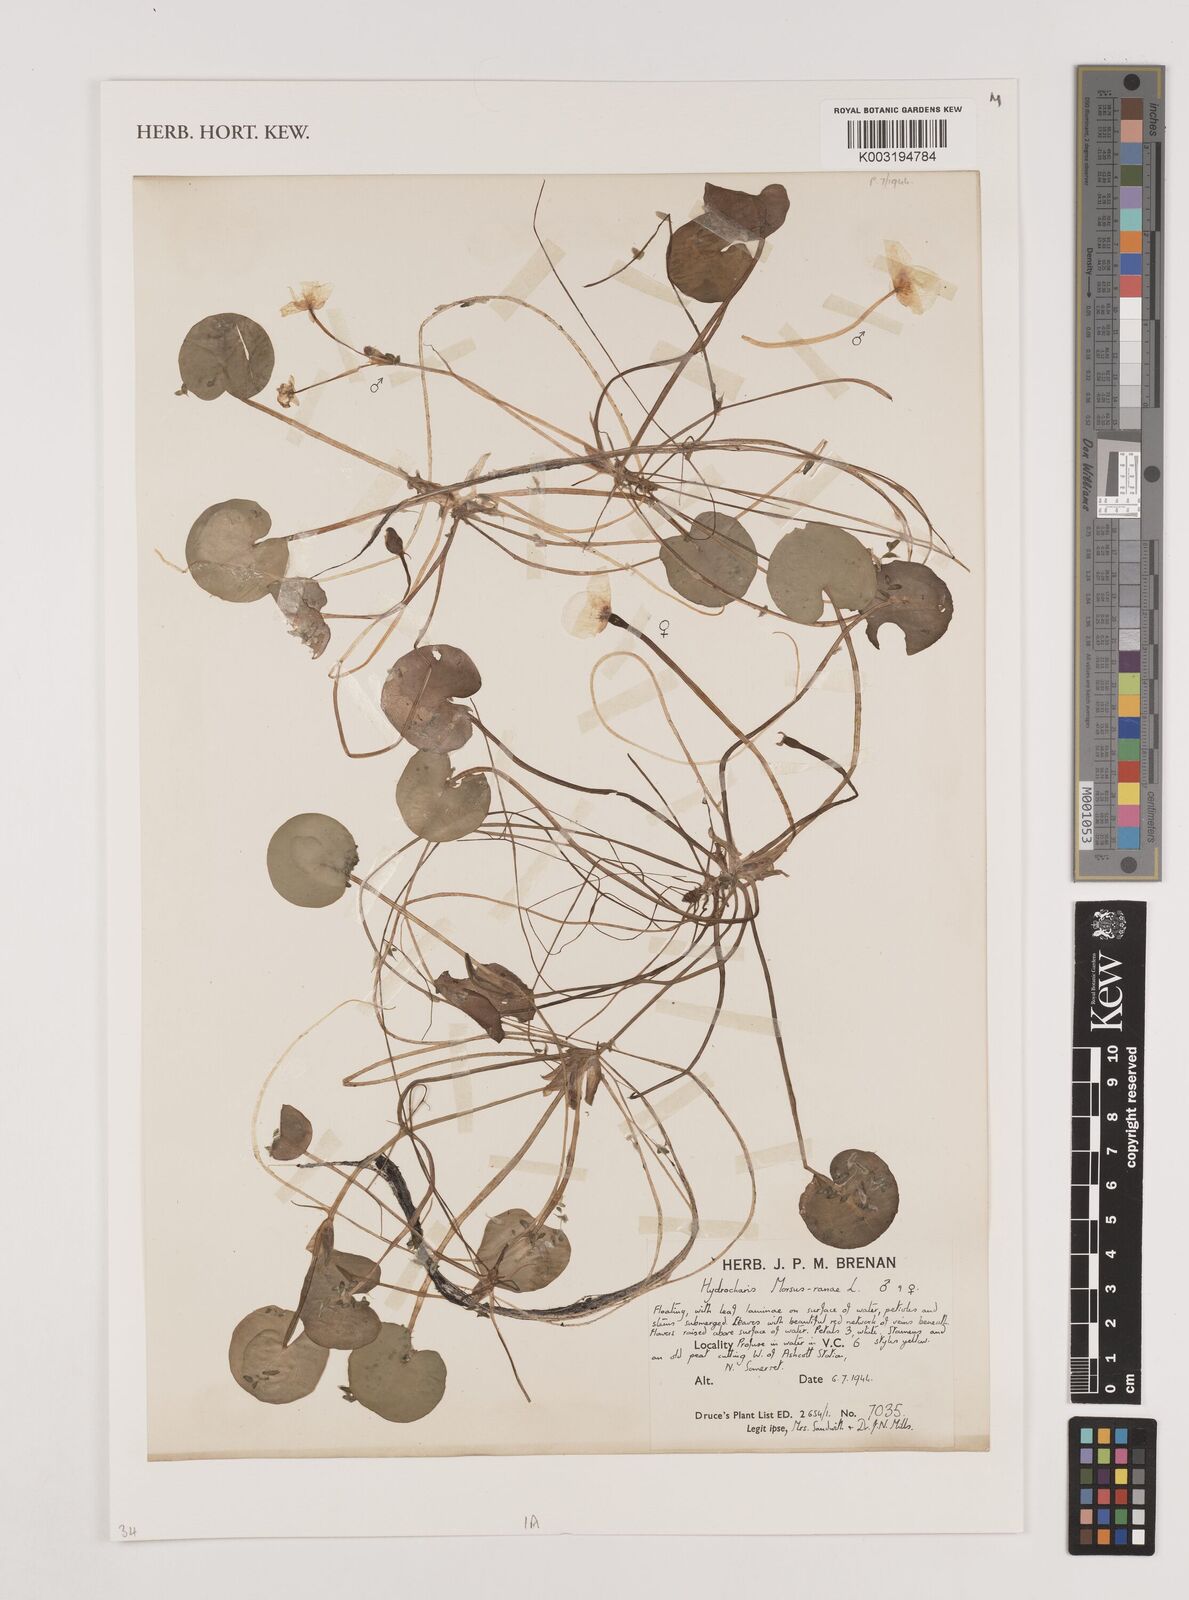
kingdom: Plantae
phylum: Tracheophyta
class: Liliopsida
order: Alismatales
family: Hydrocharitaceae
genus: Hydrocharis
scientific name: Hydrocharis morsus-ranae
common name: Frogbit
